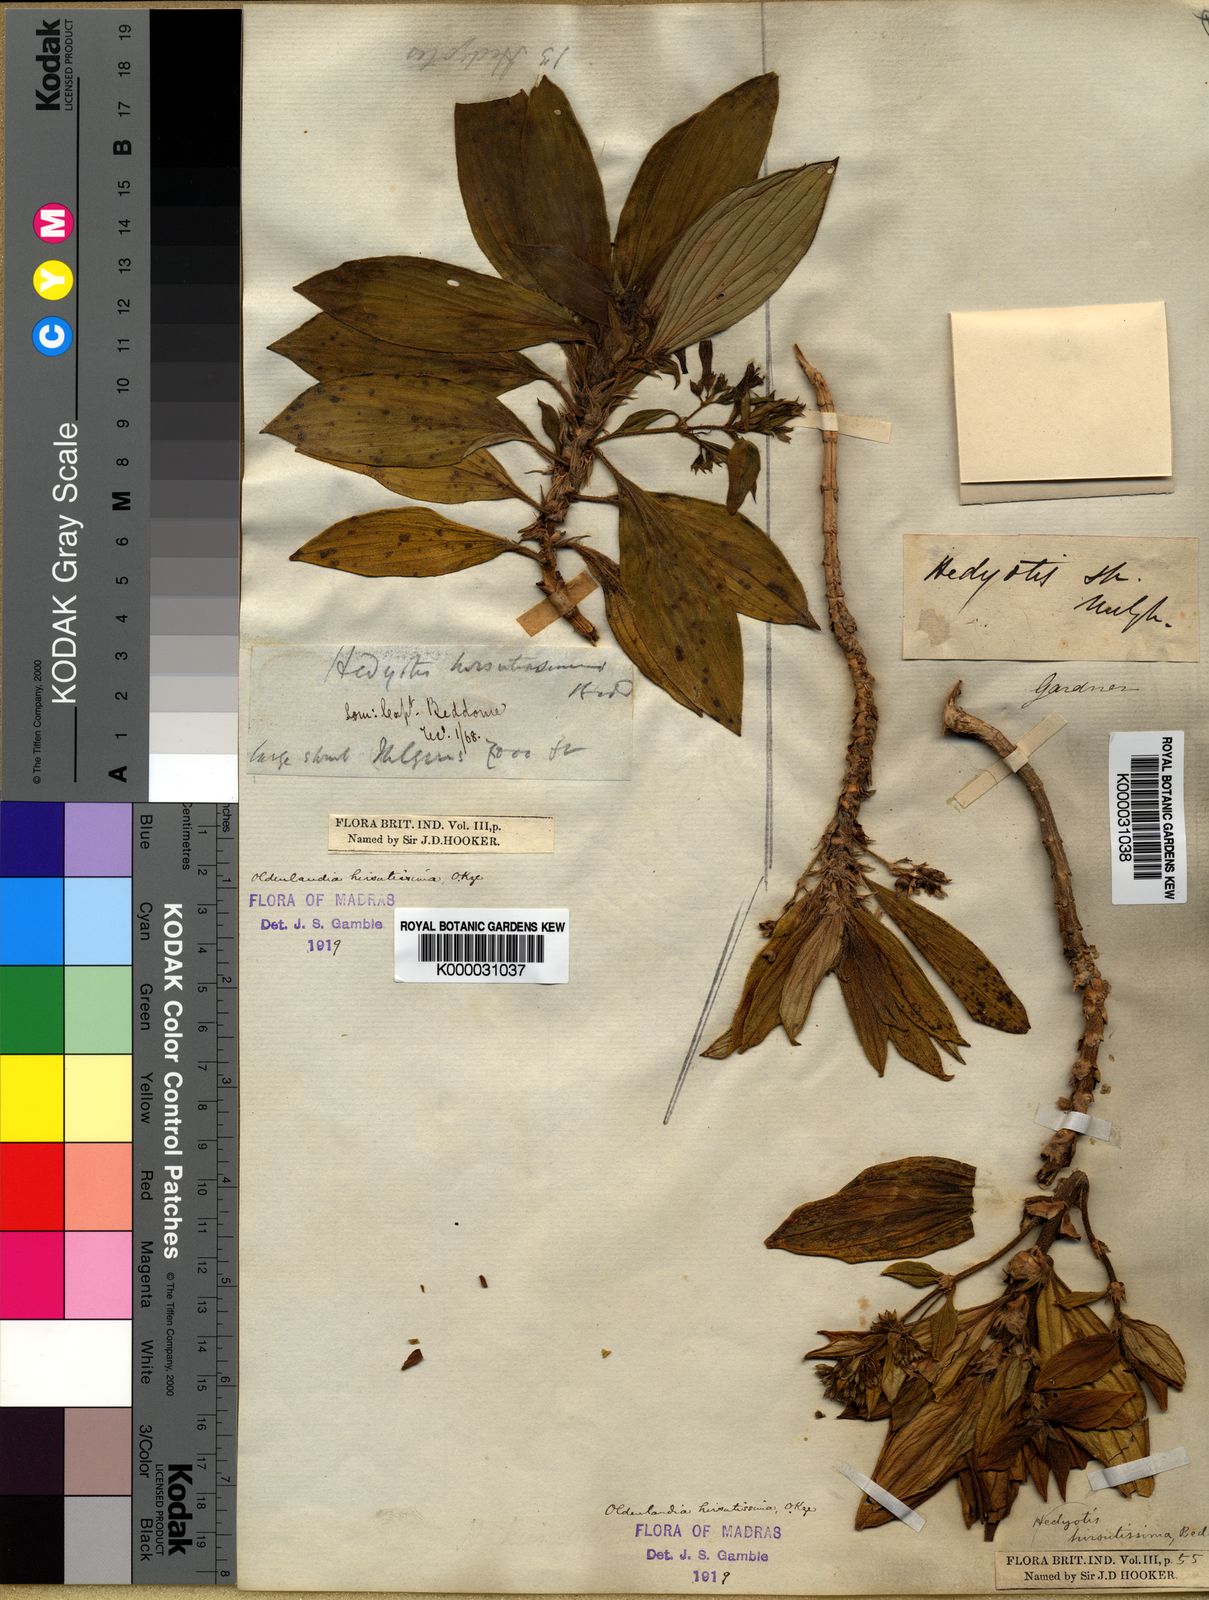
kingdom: Plantae
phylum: Tracheophyta
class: Magnoliopsida
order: Gentianales
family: Rubiaceae
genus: Hedyotis
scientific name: Hedyotis hirsutissima
